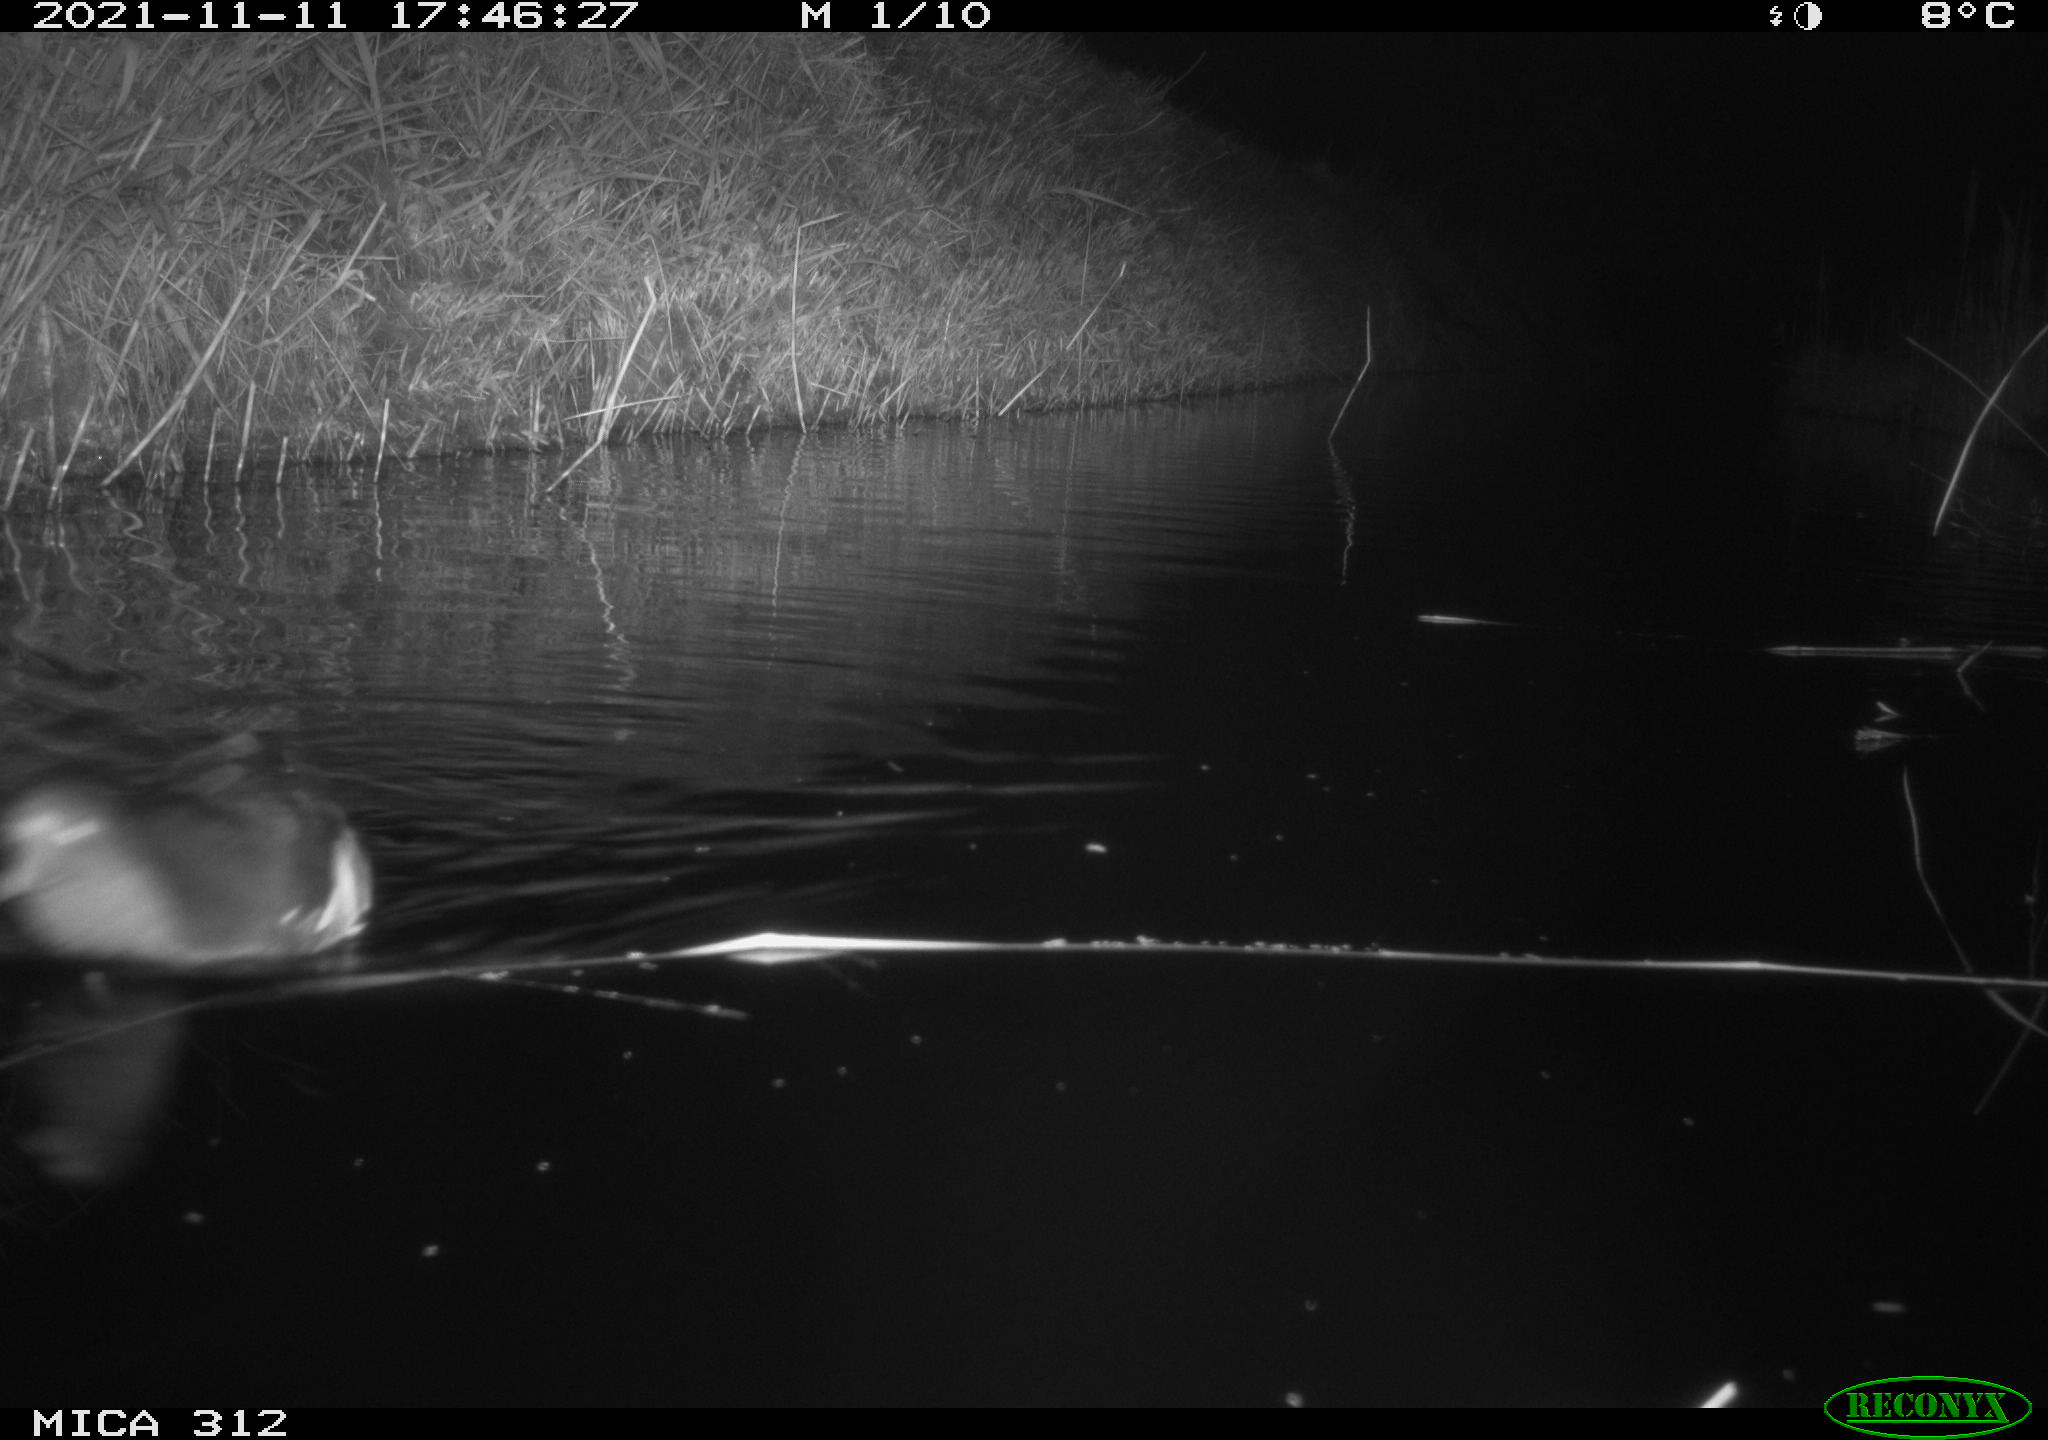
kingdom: Animalia
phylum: Chordata
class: Aves
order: Gruiformes
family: Rallidae
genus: Gallinula
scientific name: Gallinula chloropus
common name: Common moorhen
